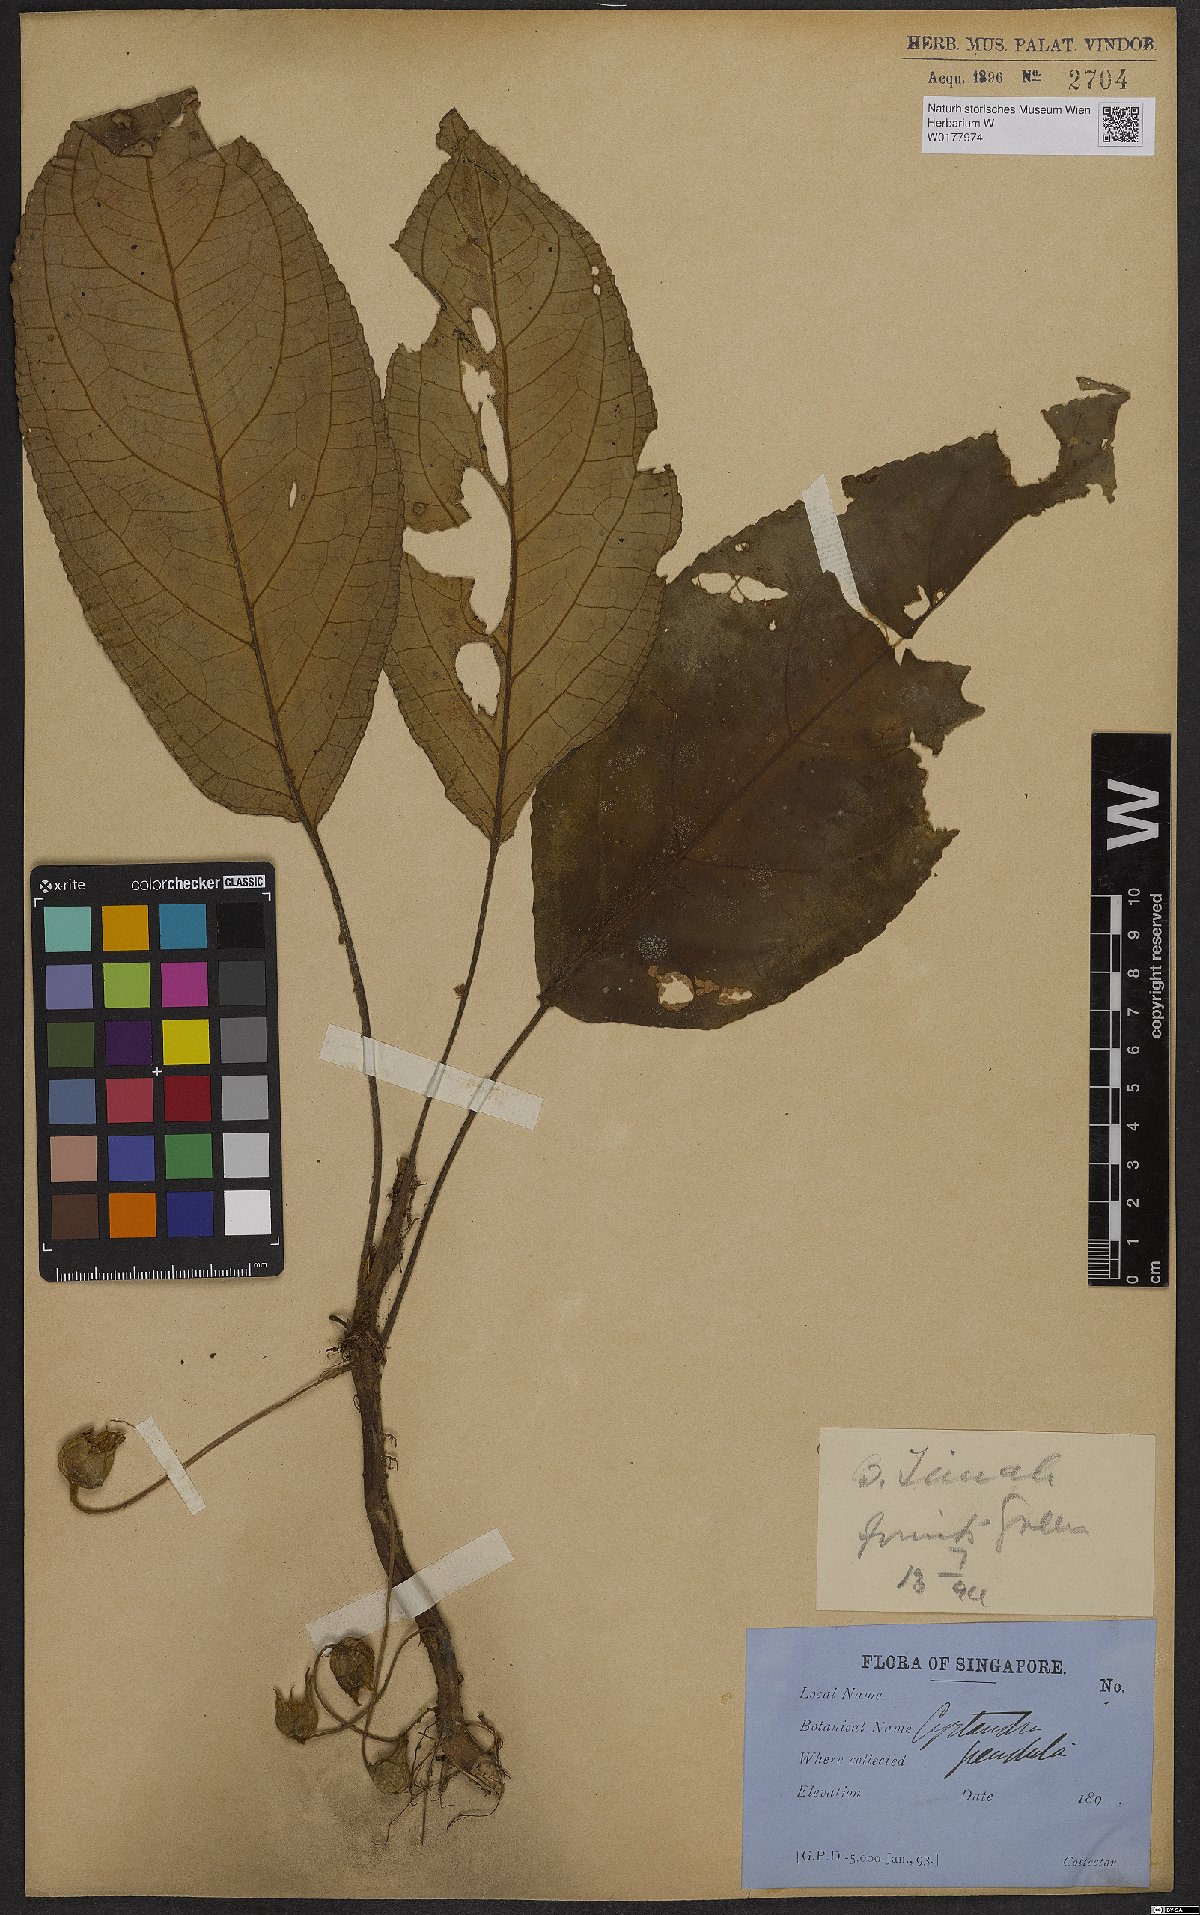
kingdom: Plantae
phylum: Tracheophyta
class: Magnoliopsida
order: Lamiales
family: Gesneriaceae
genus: Cyrtandra
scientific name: Cyrtandra pendula
